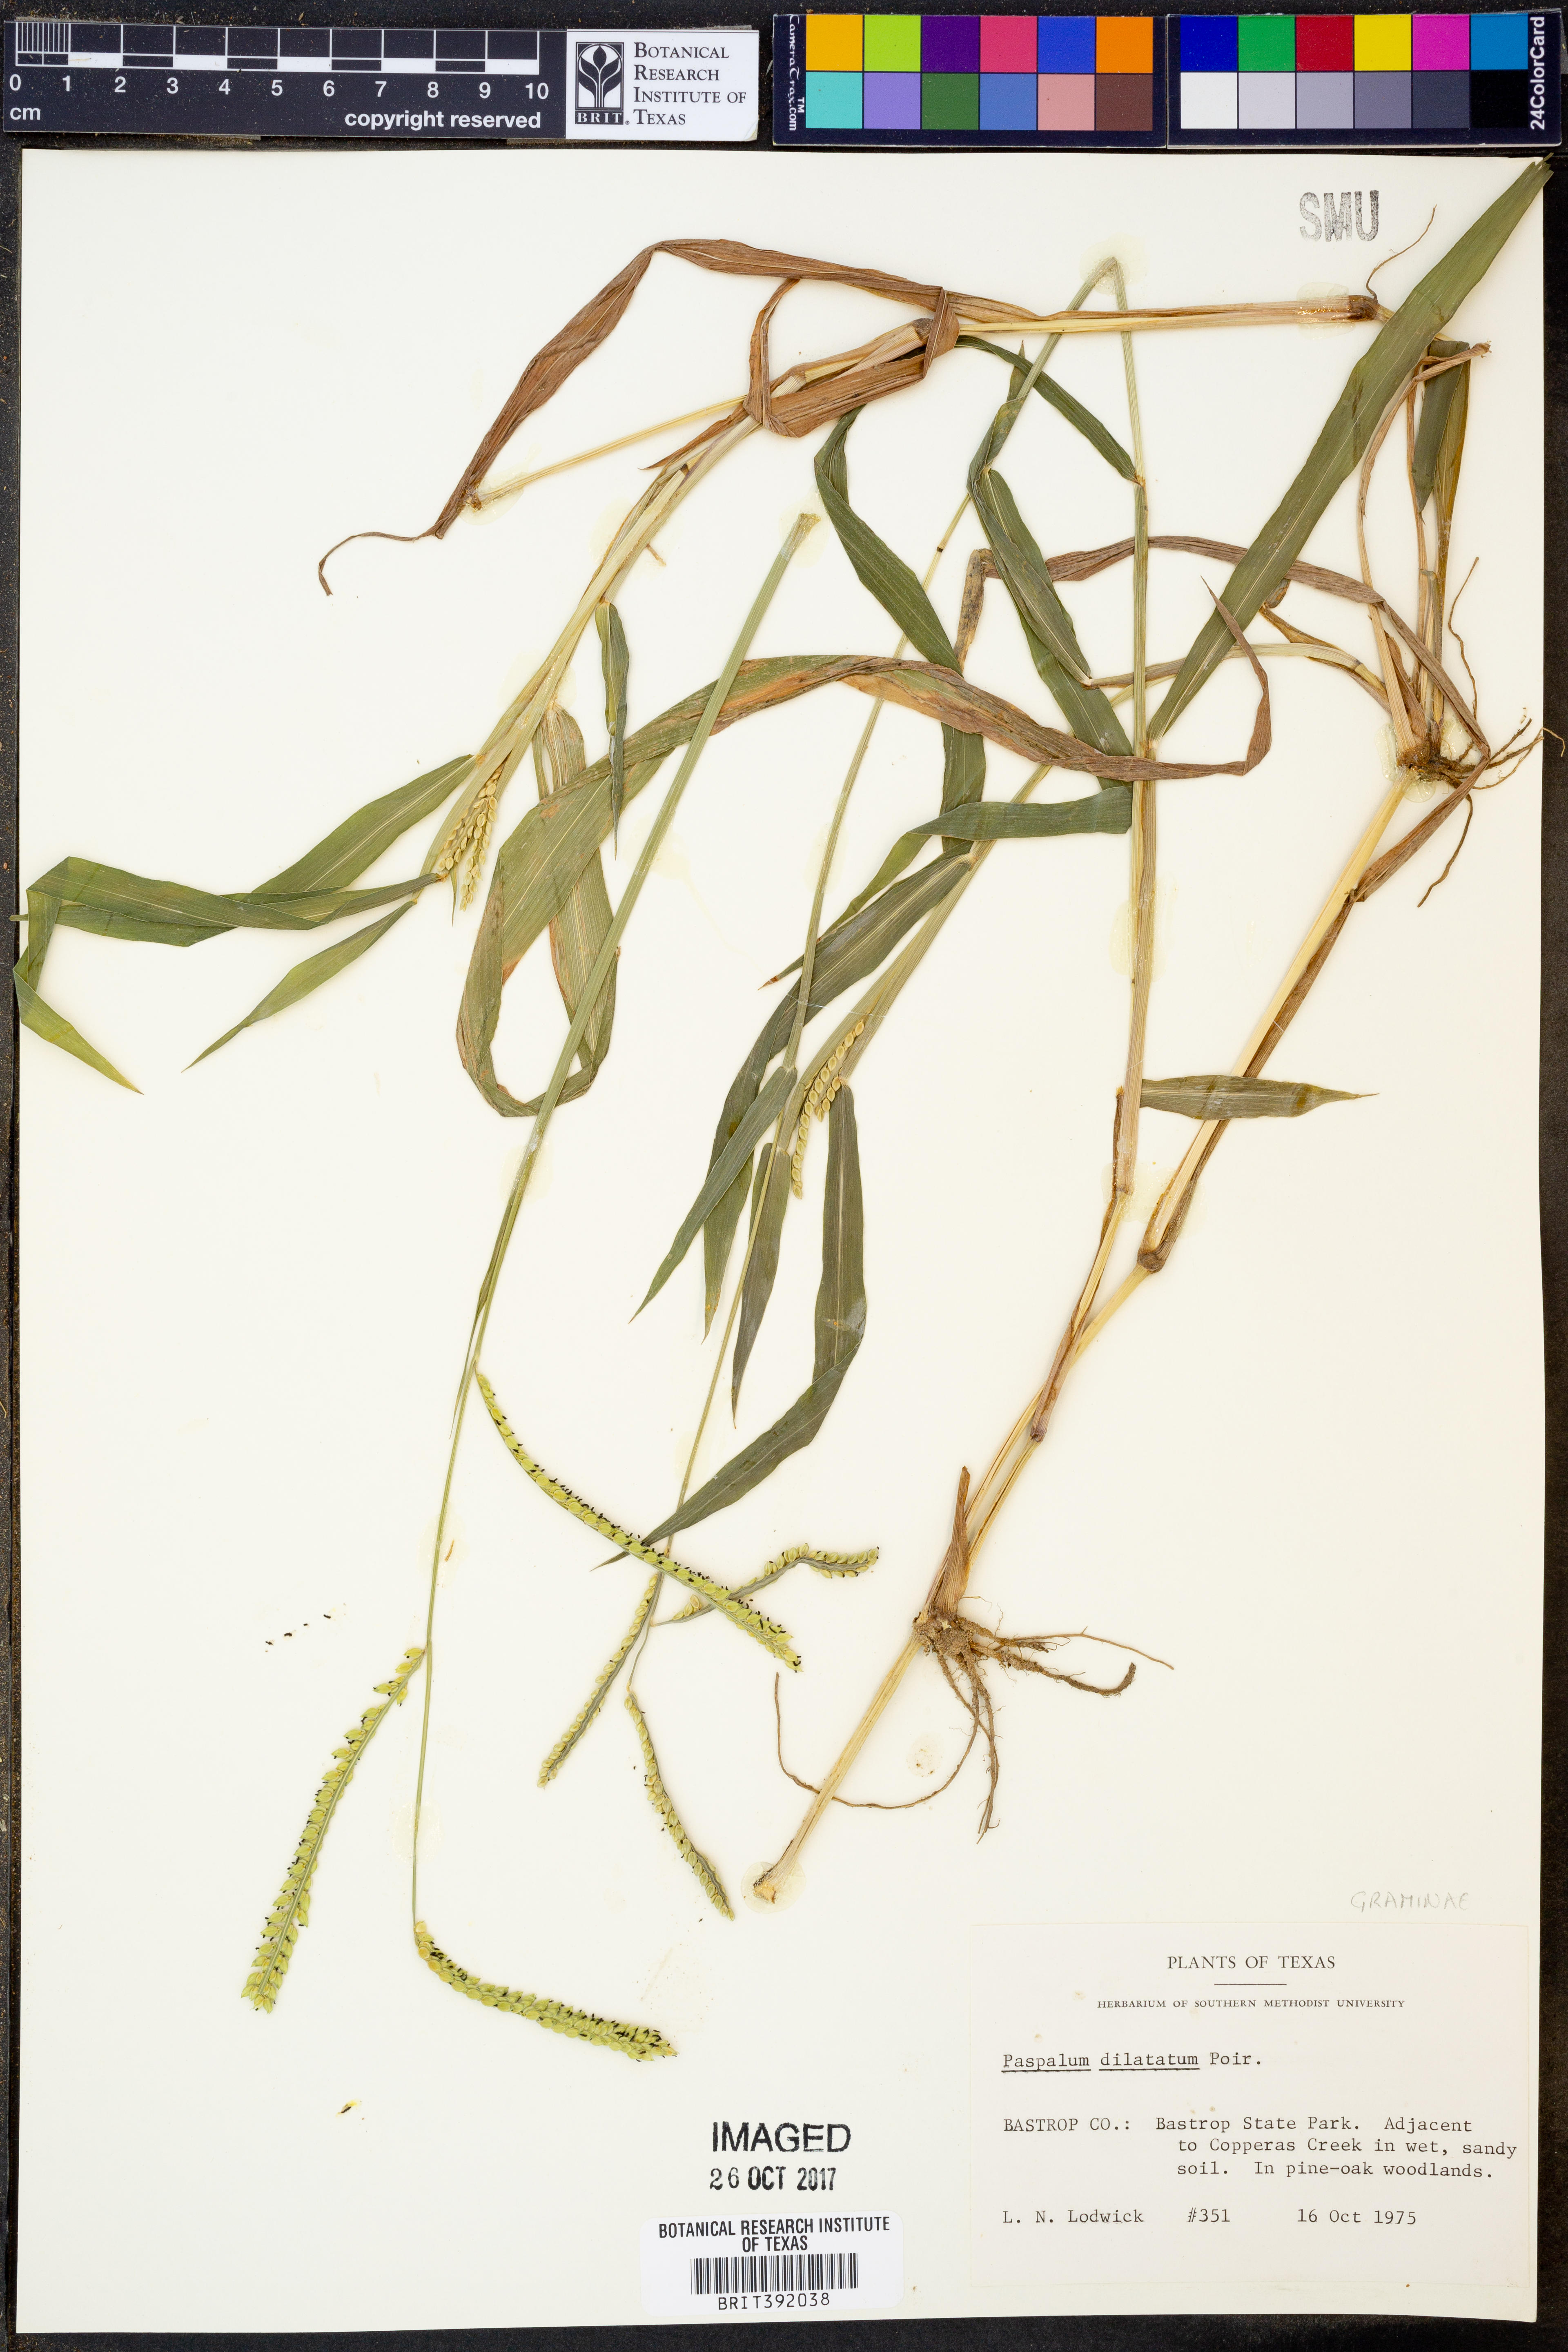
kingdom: Plantae
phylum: Tracheophyta
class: Liliopsida
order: Poales
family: Poaceae
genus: Paspalum
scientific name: Paspalum dilatatum
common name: Dallisgrass
